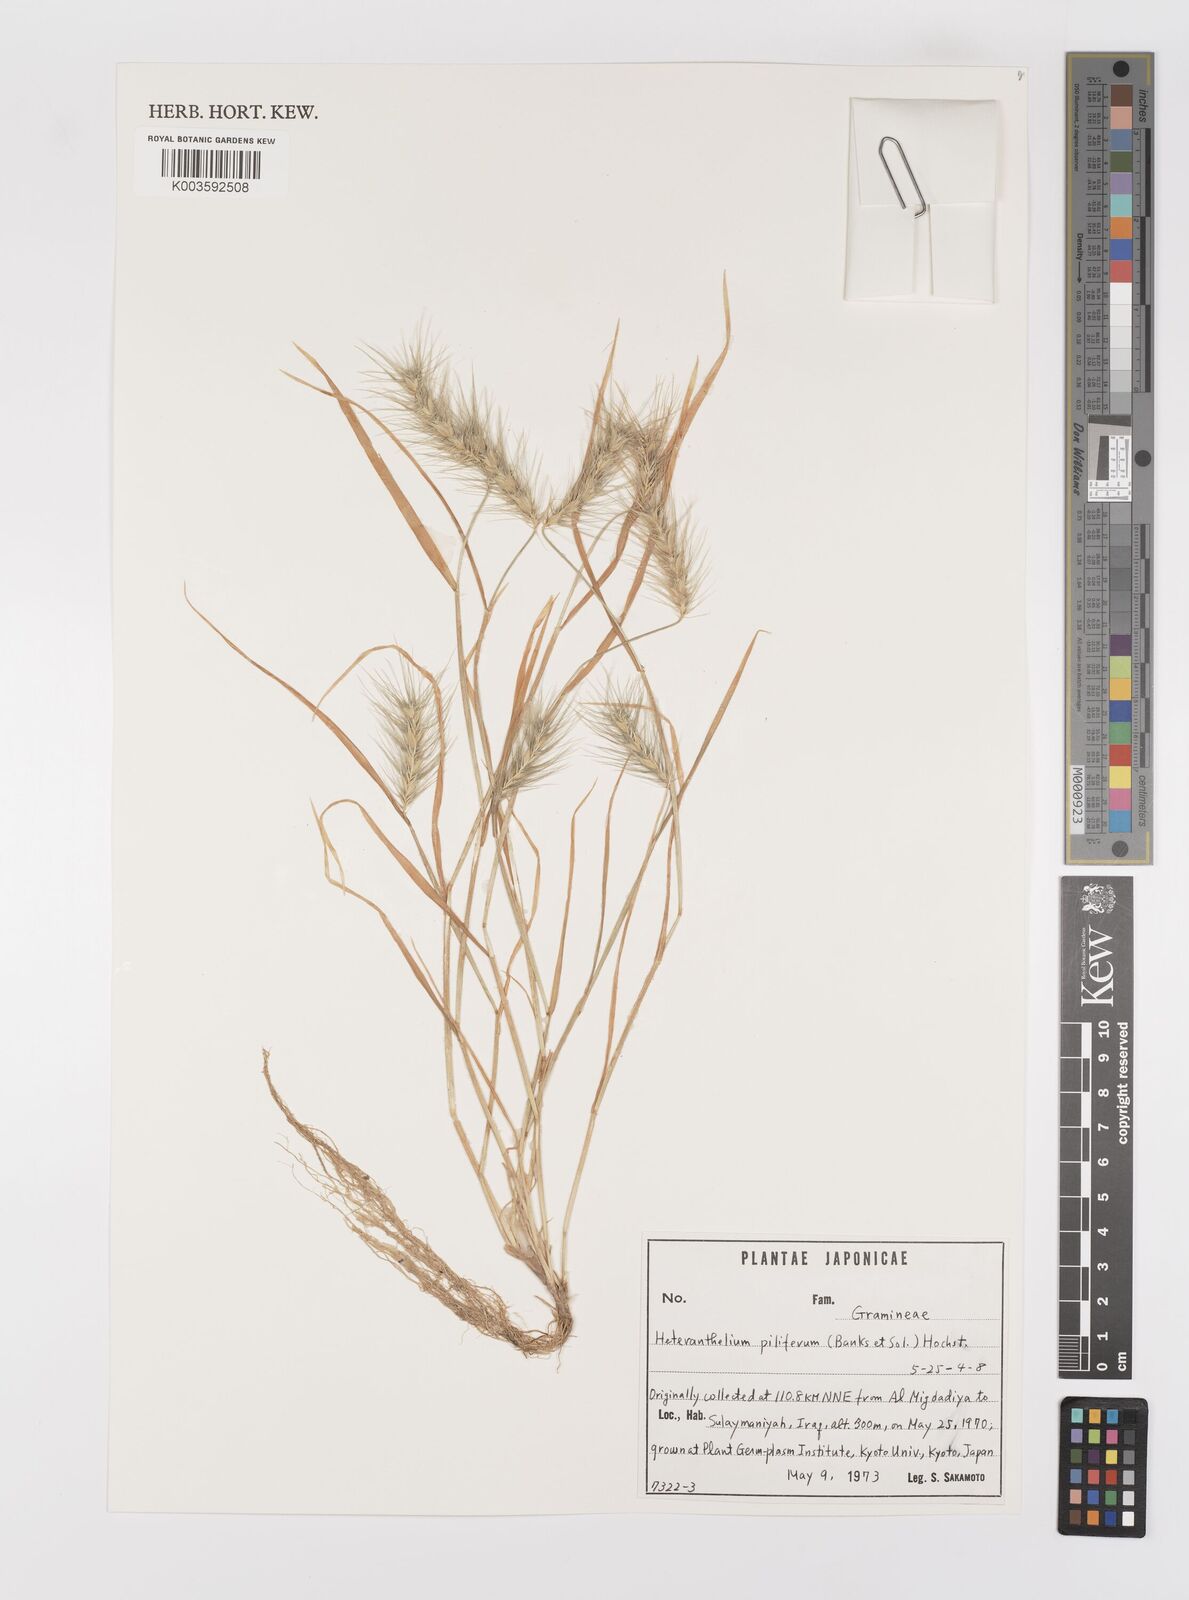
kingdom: Plantae
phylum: Tracheophyta
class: Liliopsida
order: Poales
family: Poaceae
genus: Heteranthelium
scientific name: Heteranthelium piliferum
